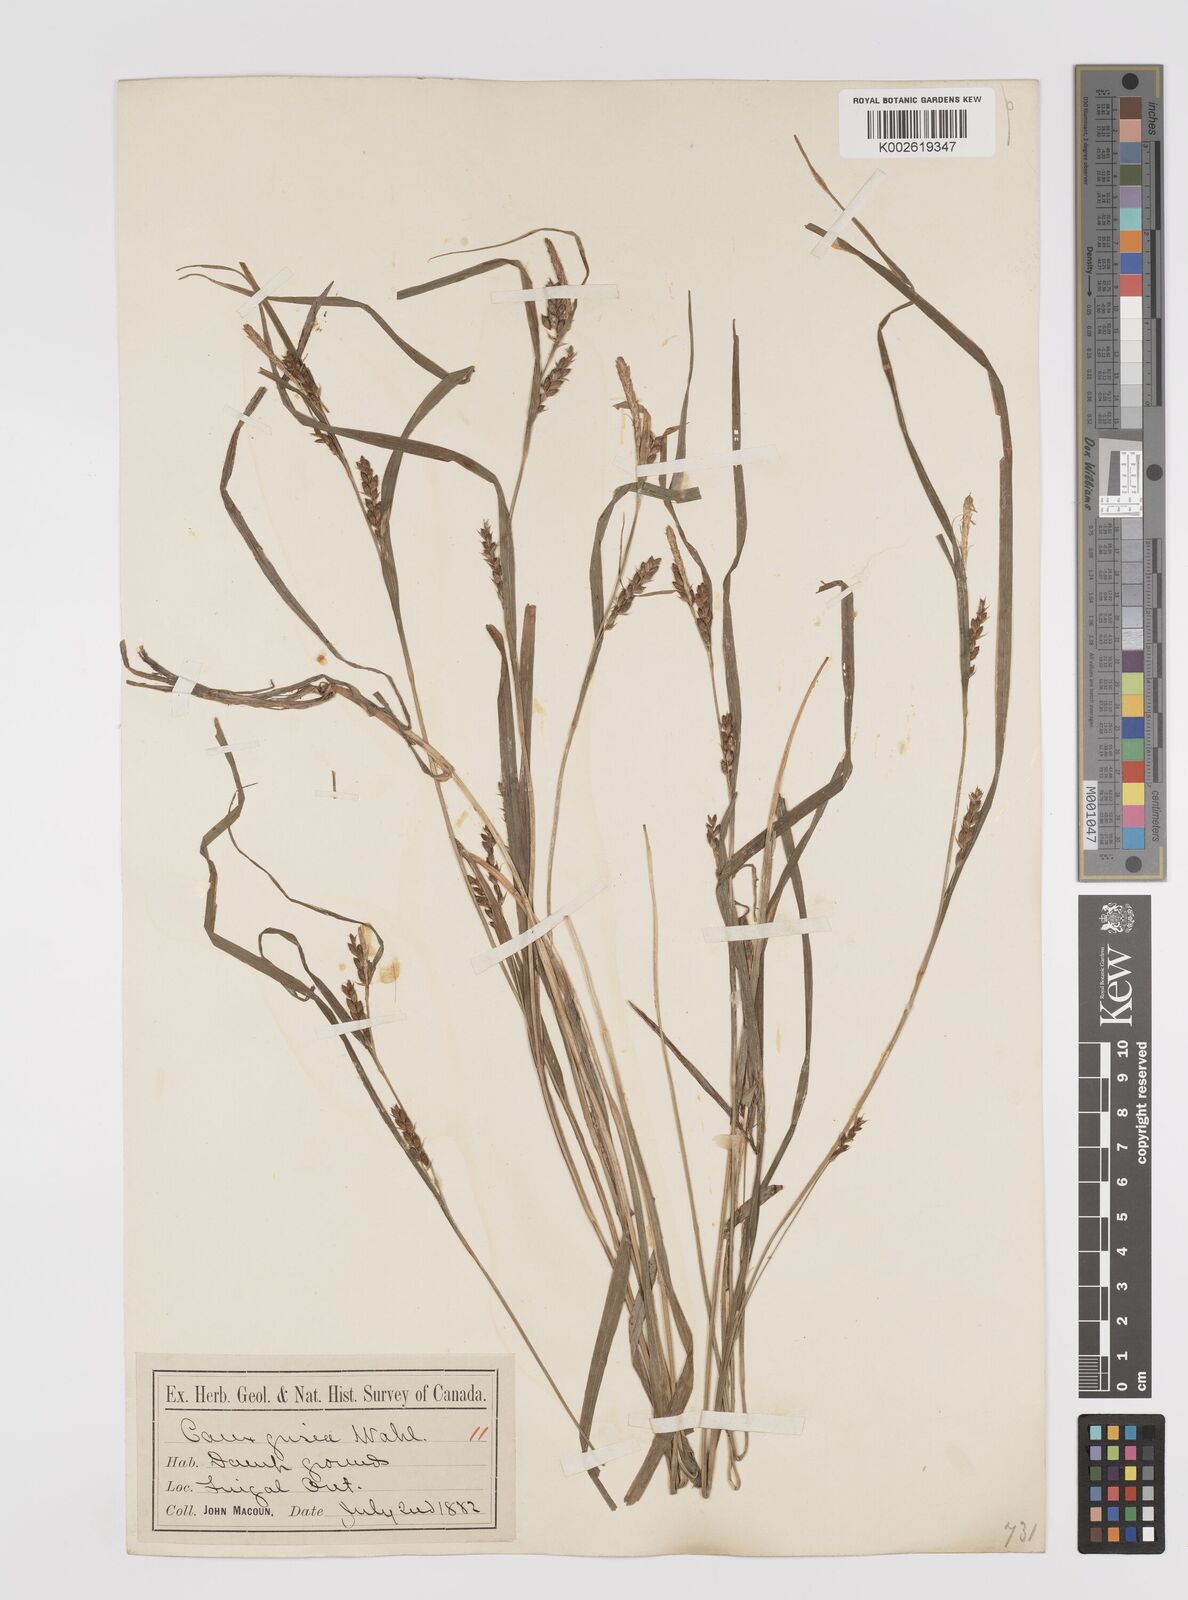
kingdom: Plantae
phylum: Tracheophyta
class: Liliopsida
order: Poales
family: Cyperaceae
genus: Carex
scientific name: Carex grisea
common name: Eastern narrow-leaved sedge
